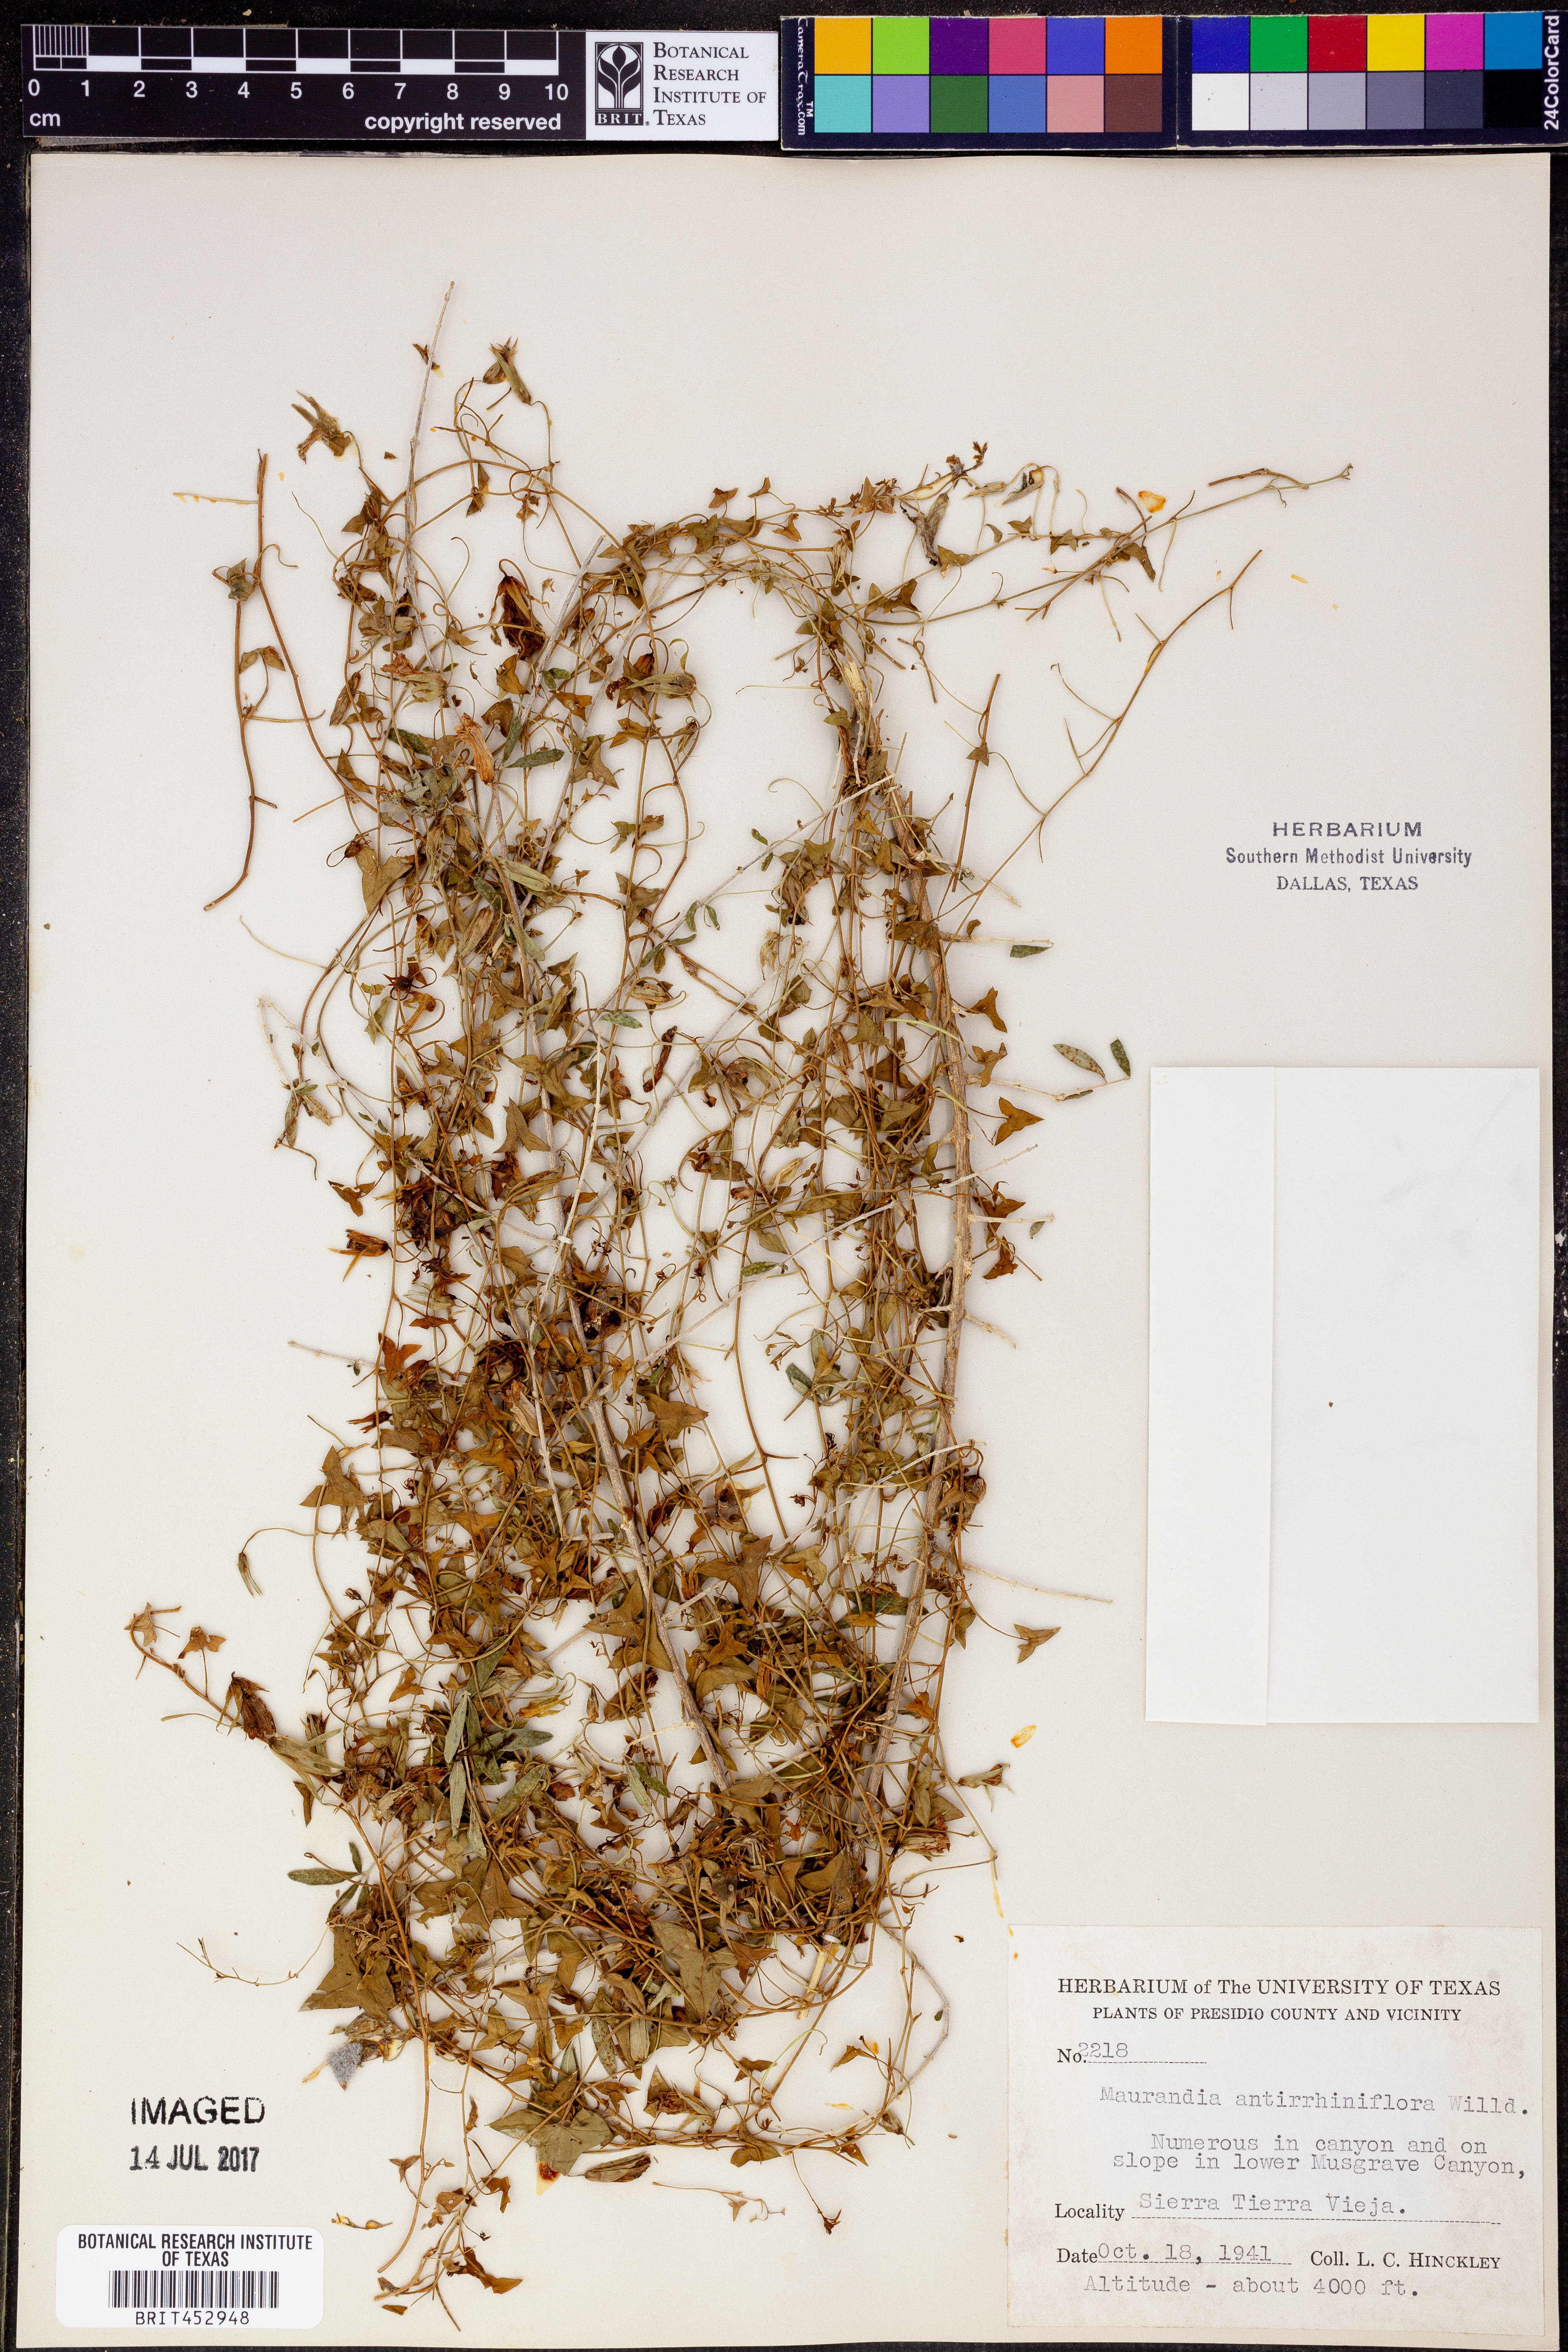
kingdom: Plantae
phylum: Tracheophyta
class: Magnoliopsida
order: Lamiales
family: Plantaginaceae
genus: Maurandella
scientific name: Maurandella antirrhiniflora
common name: Violet twining-snapdragon
